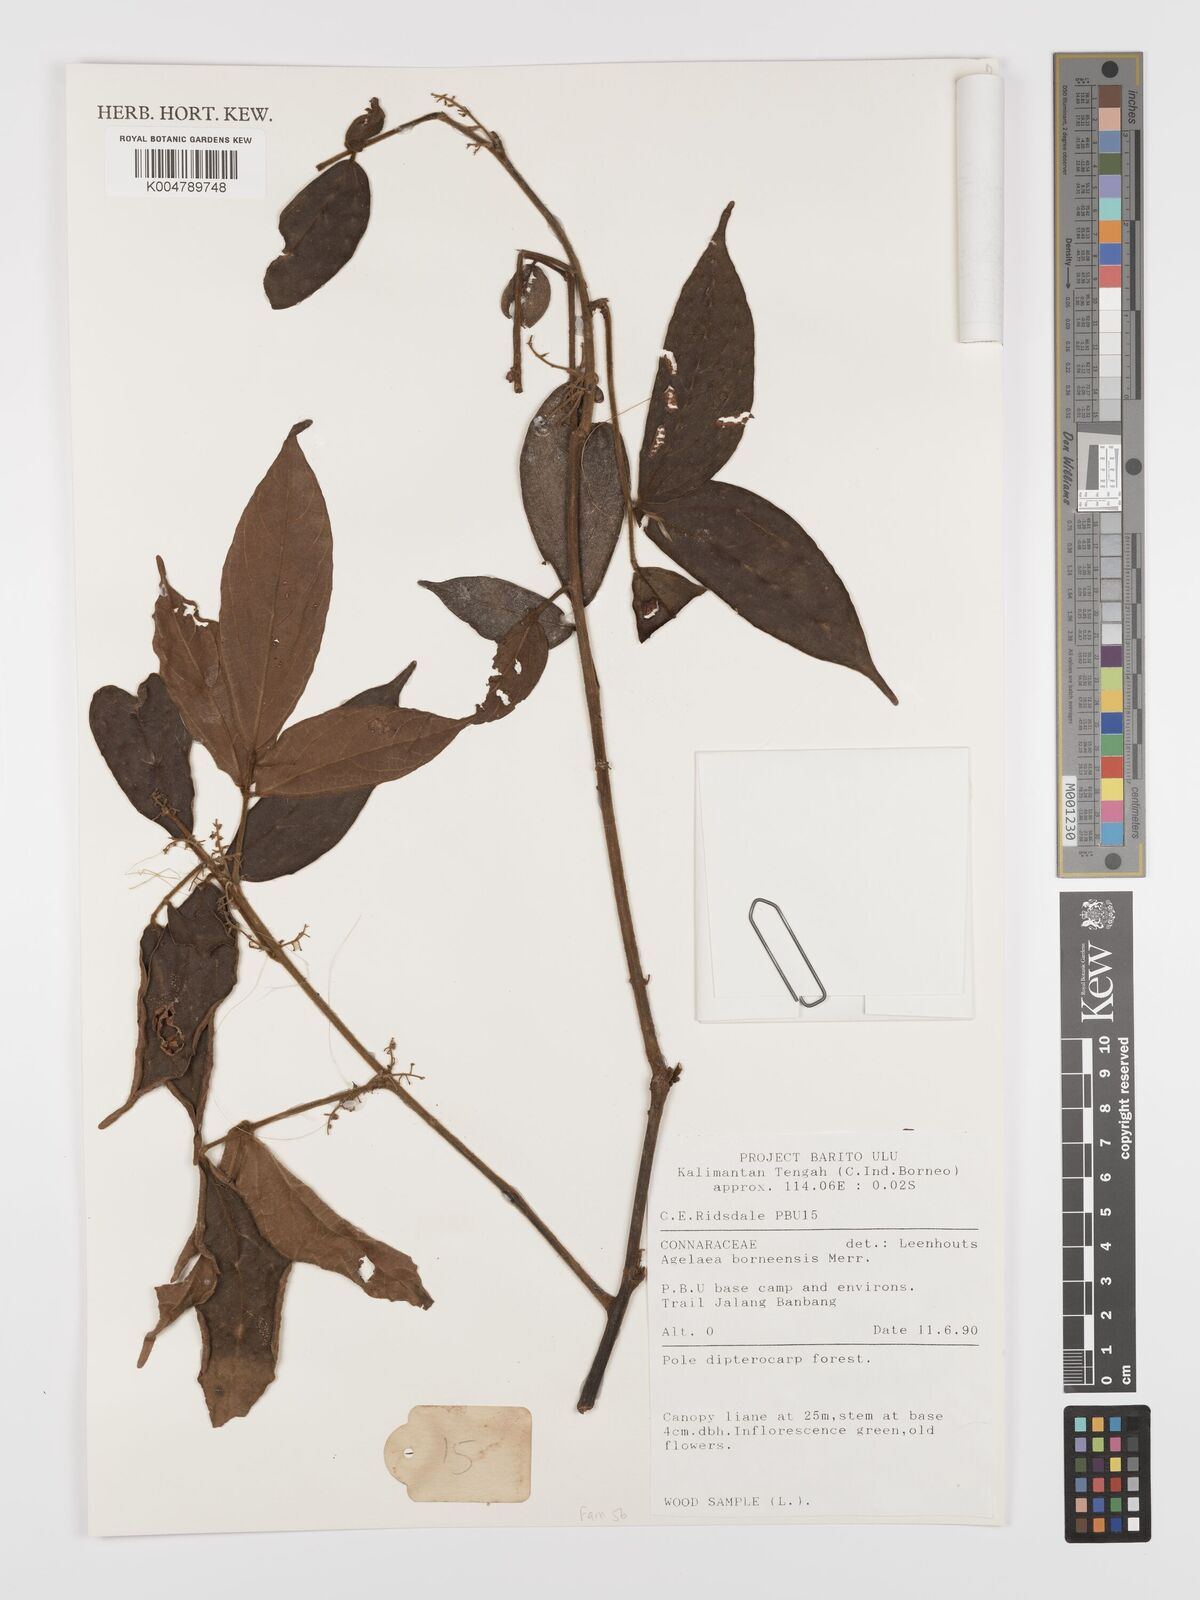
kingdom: Plantae
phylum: Tracheophyta
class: Magnoliopsida
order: Oxalidales
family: Connaraceae
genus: Agelaea
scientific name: Agelaea borneensis
